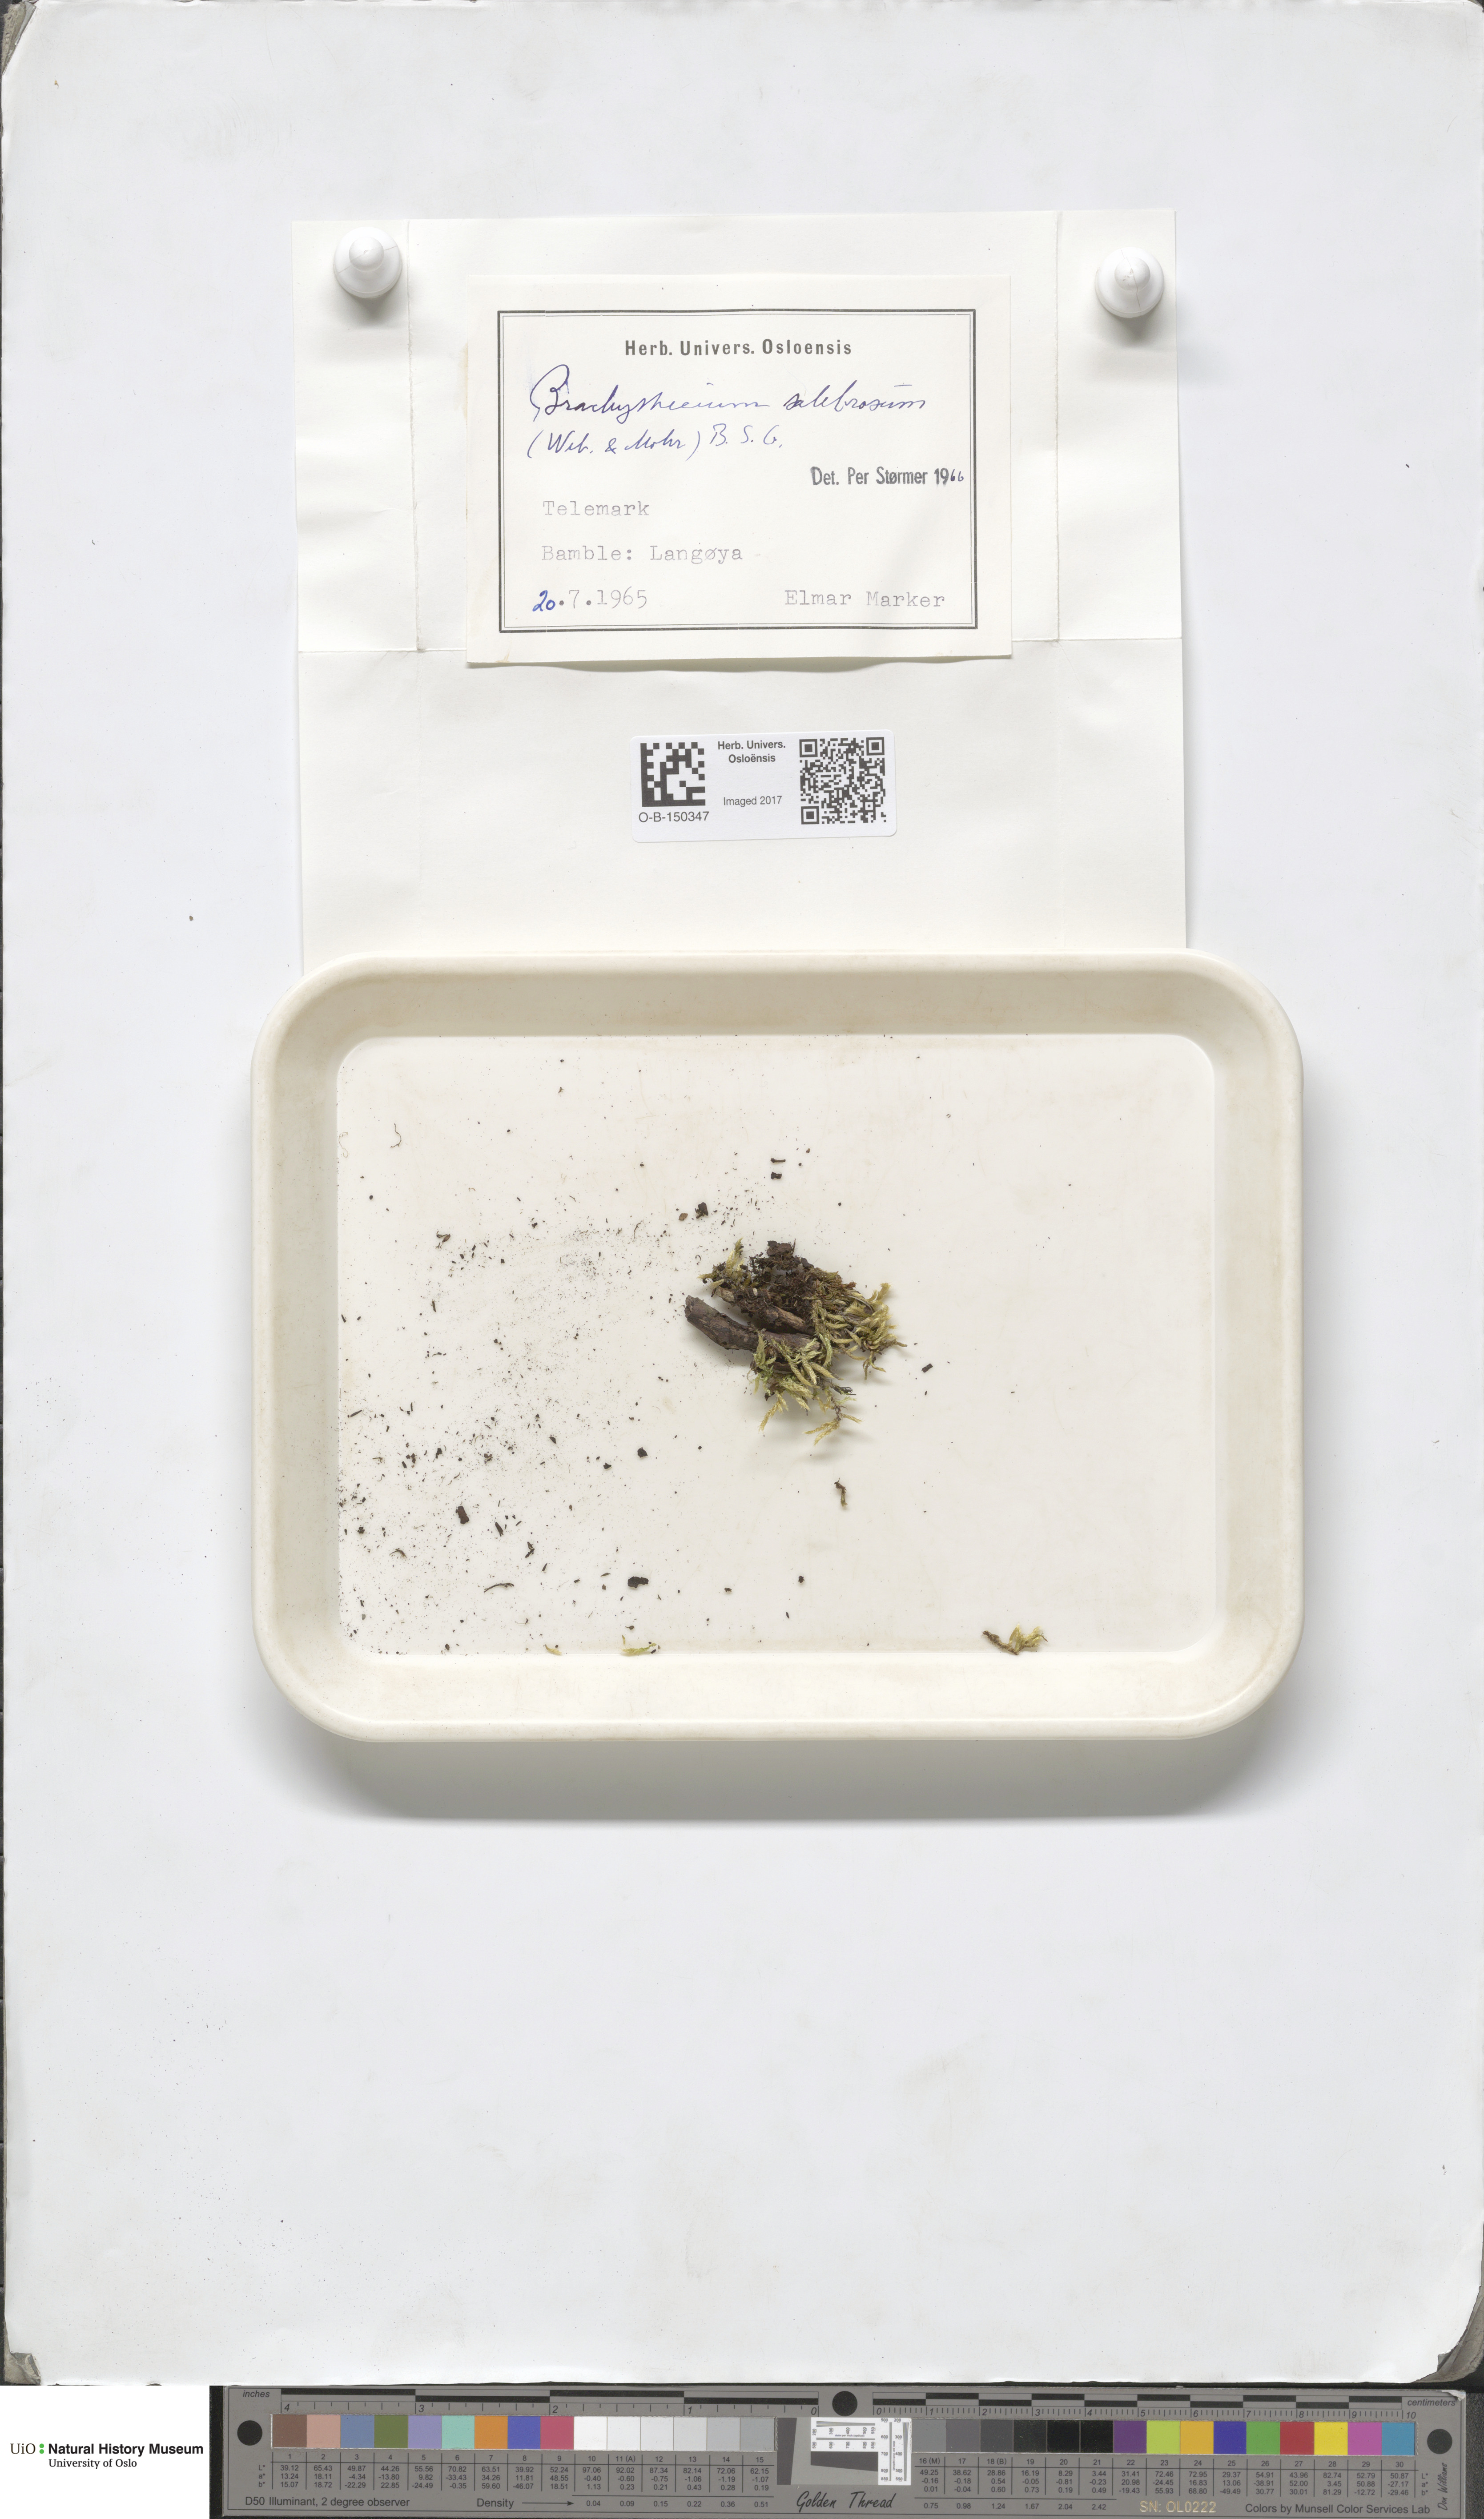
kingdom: Plantae
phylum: Bryophyta
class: Bryopsida
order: Hypnales
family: Brachytheciaceae
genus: Brachythecium
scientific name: Brachythecium salebrosum
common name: Smooth-stalk feather-moss
